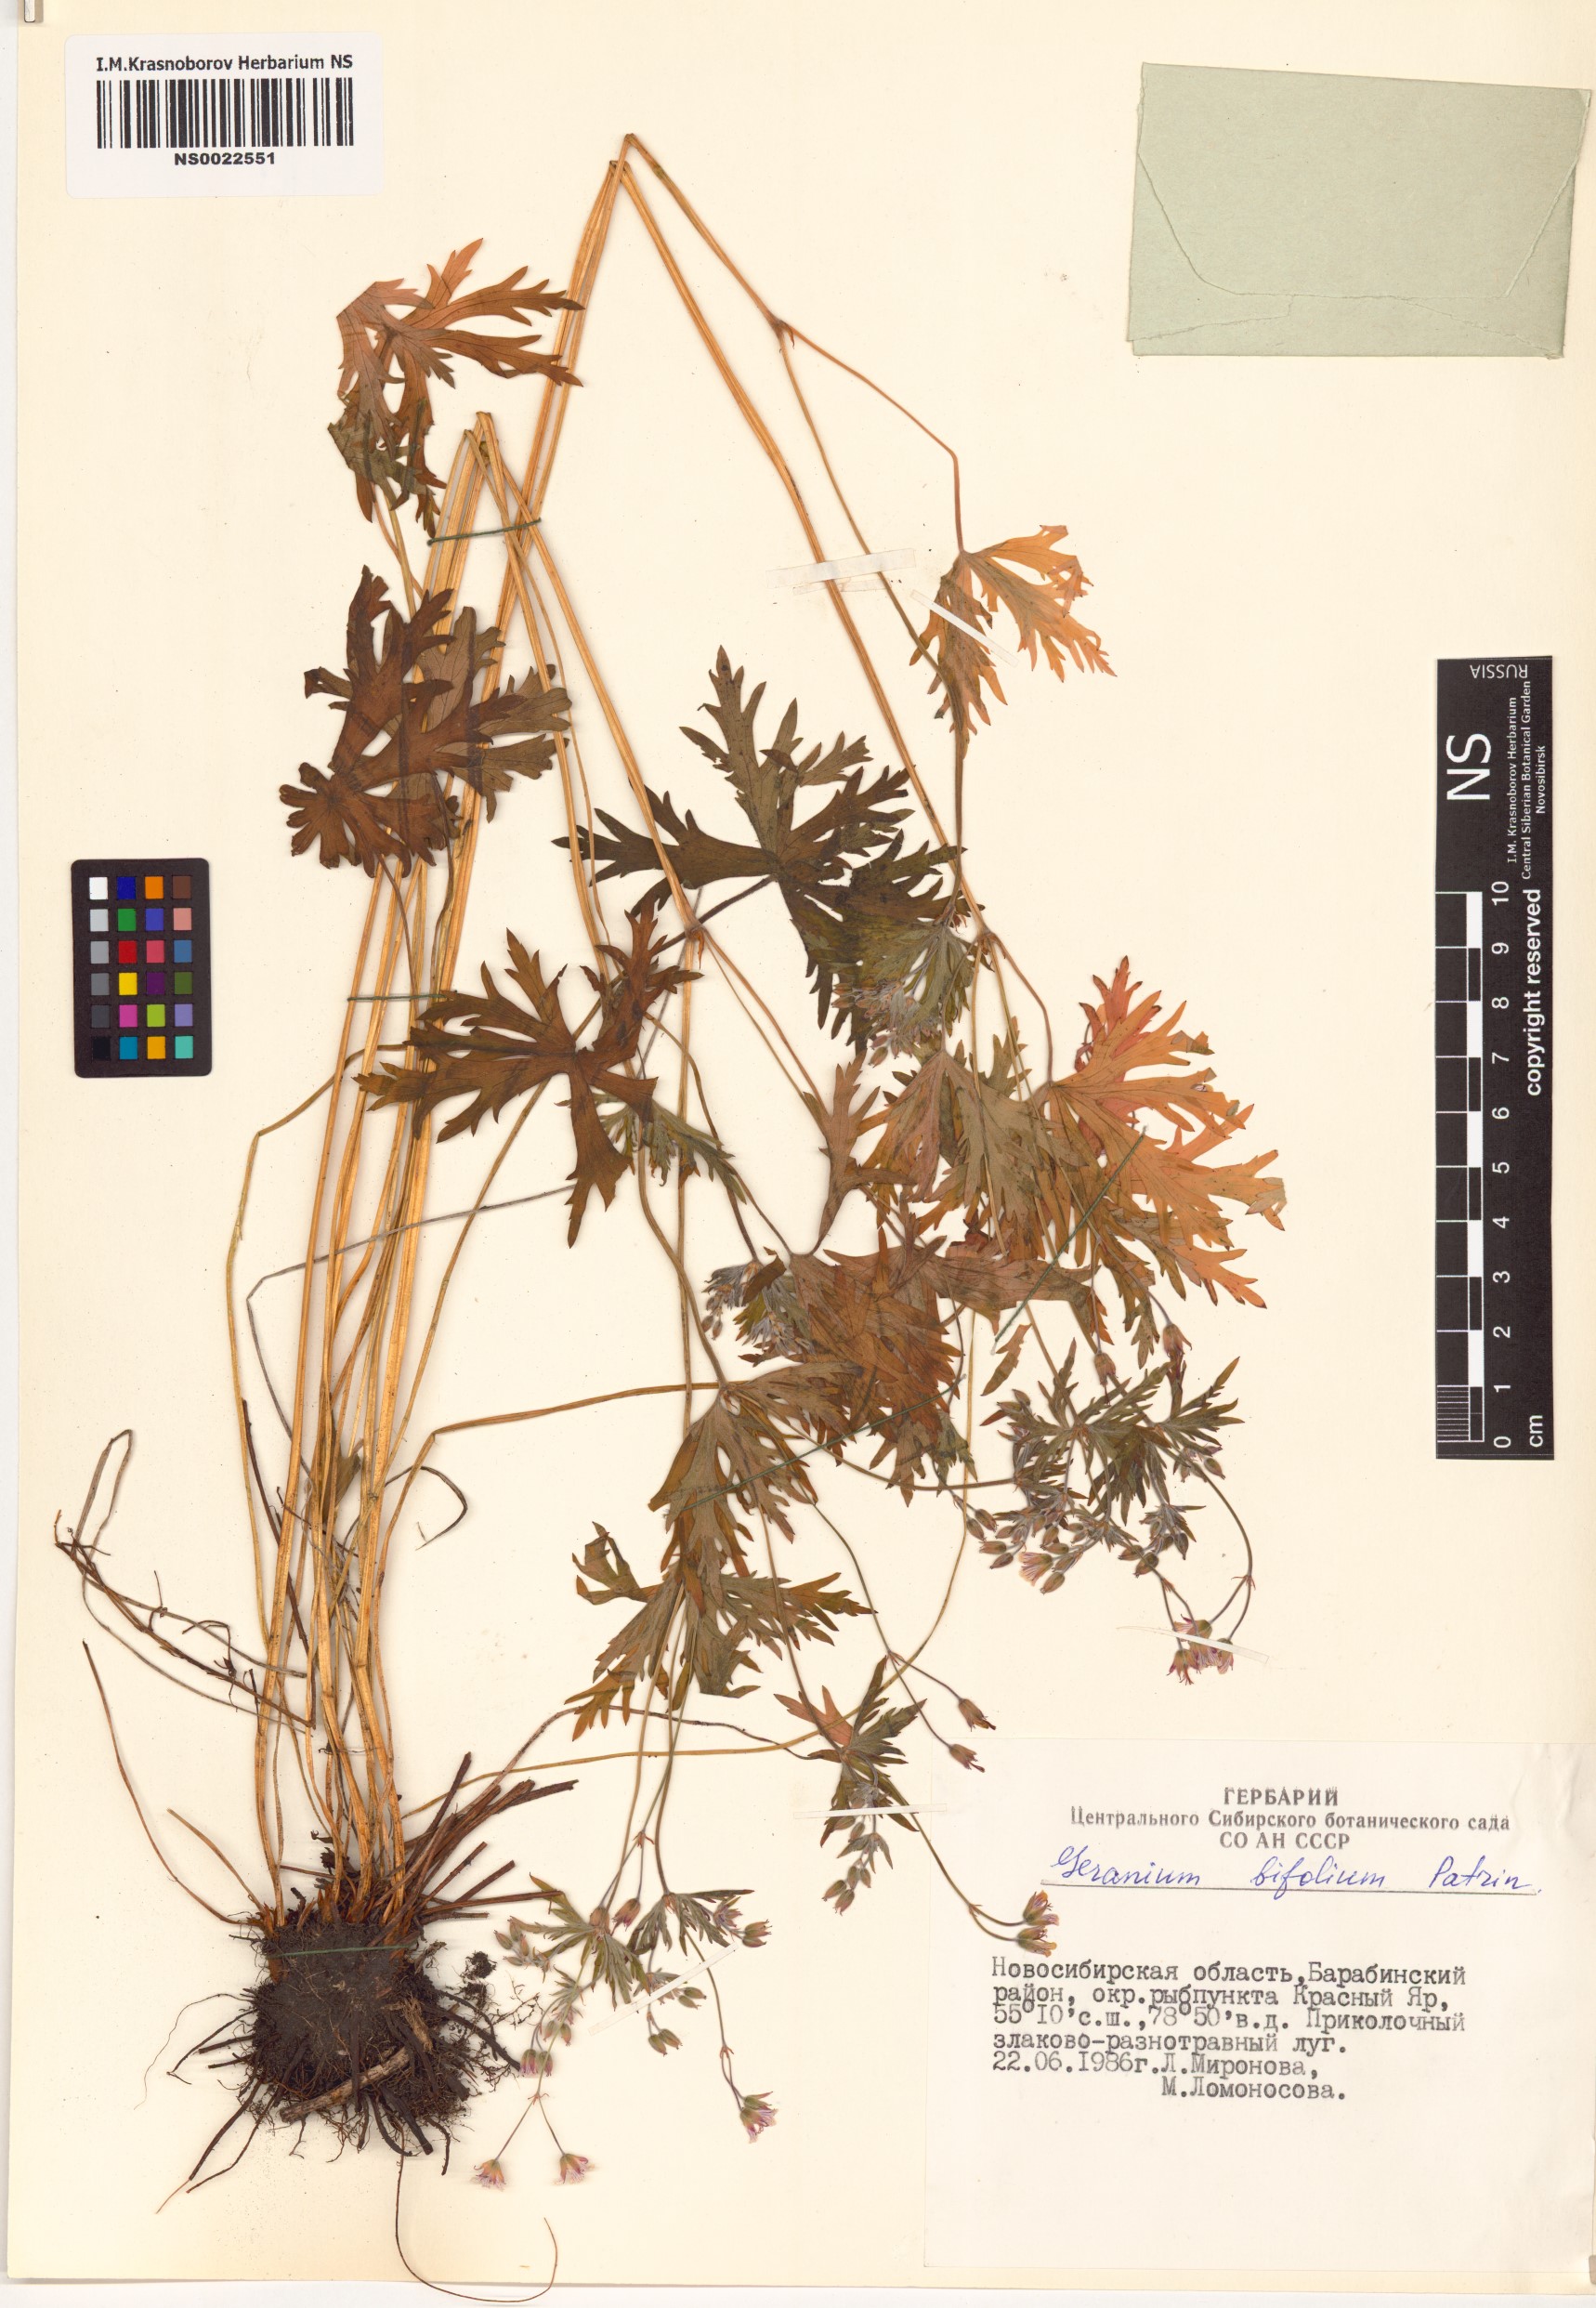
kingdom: Plantae
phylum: Tracheophyta
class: Magnoliopsida
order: Geraniales
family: Geraniaceae
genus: Geranium
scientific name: Geranium pseudosibiricum
